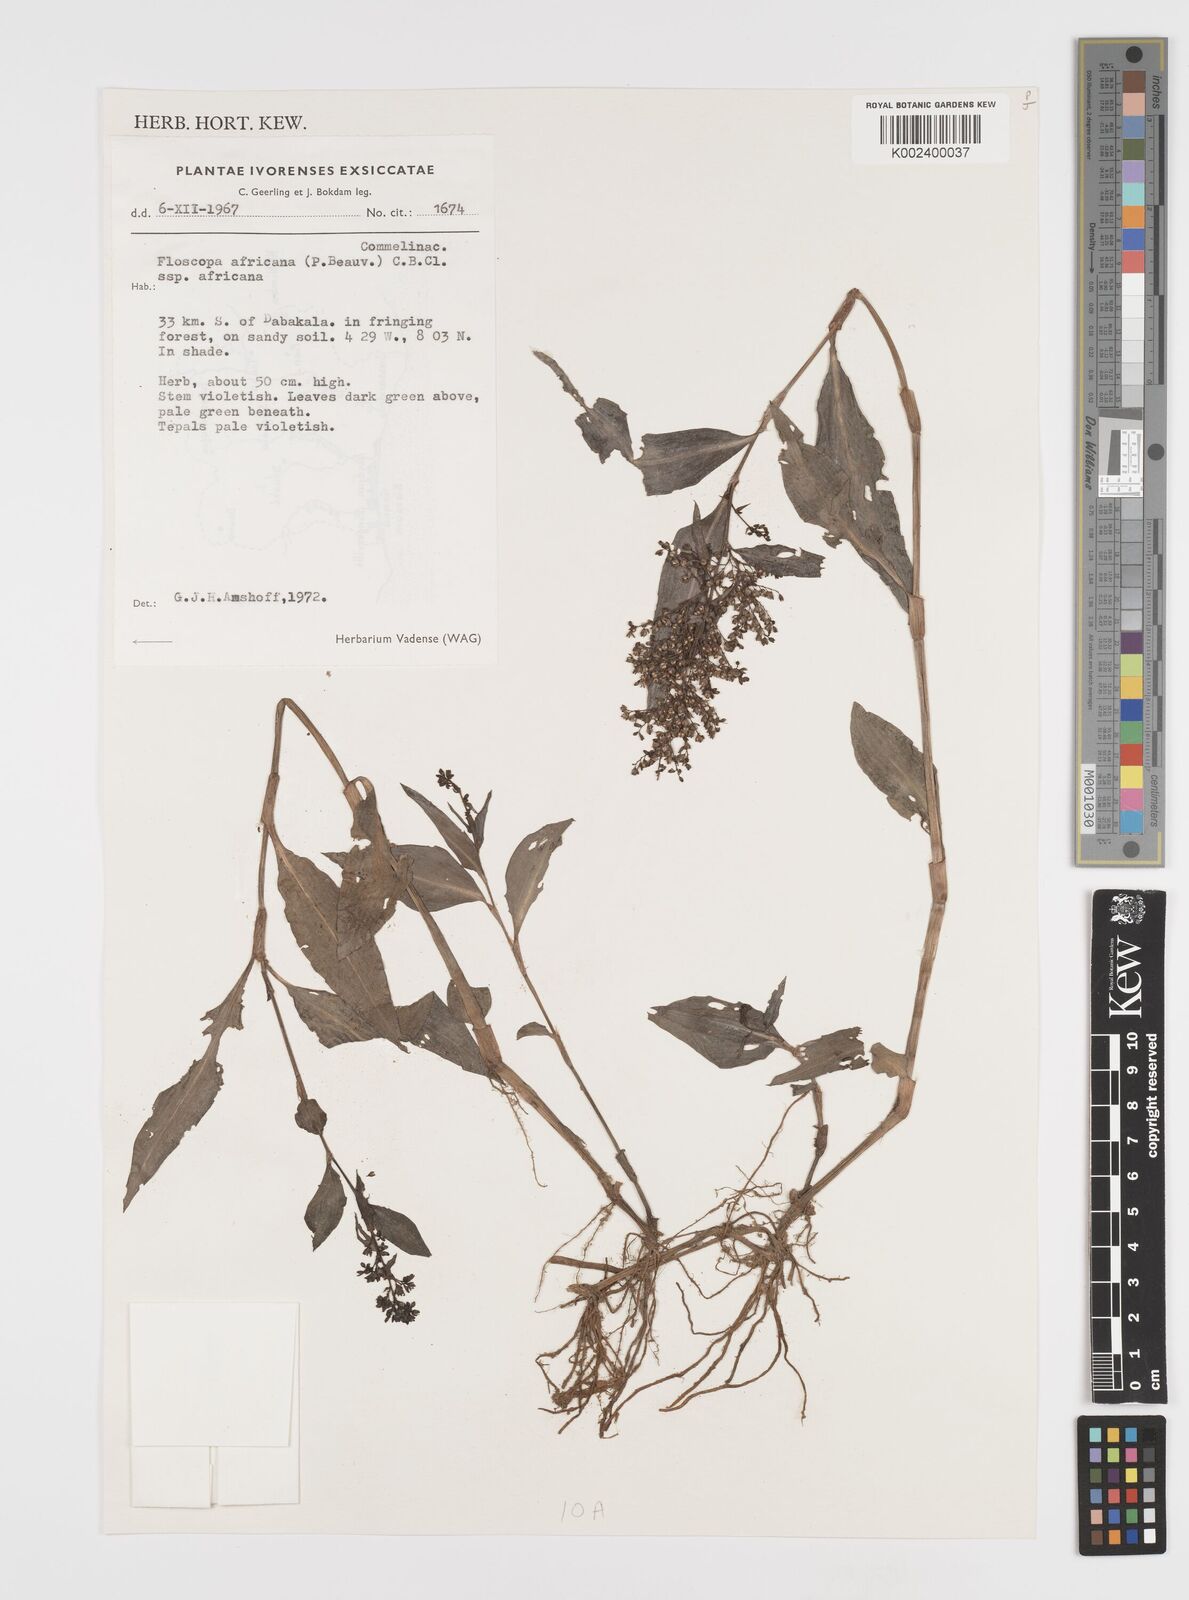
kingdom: Plantae
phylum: Tracheophyta
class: Liliopsida
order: Commelinales
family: Commelinaceae
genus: Floscopa
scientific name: Floscopa africana
